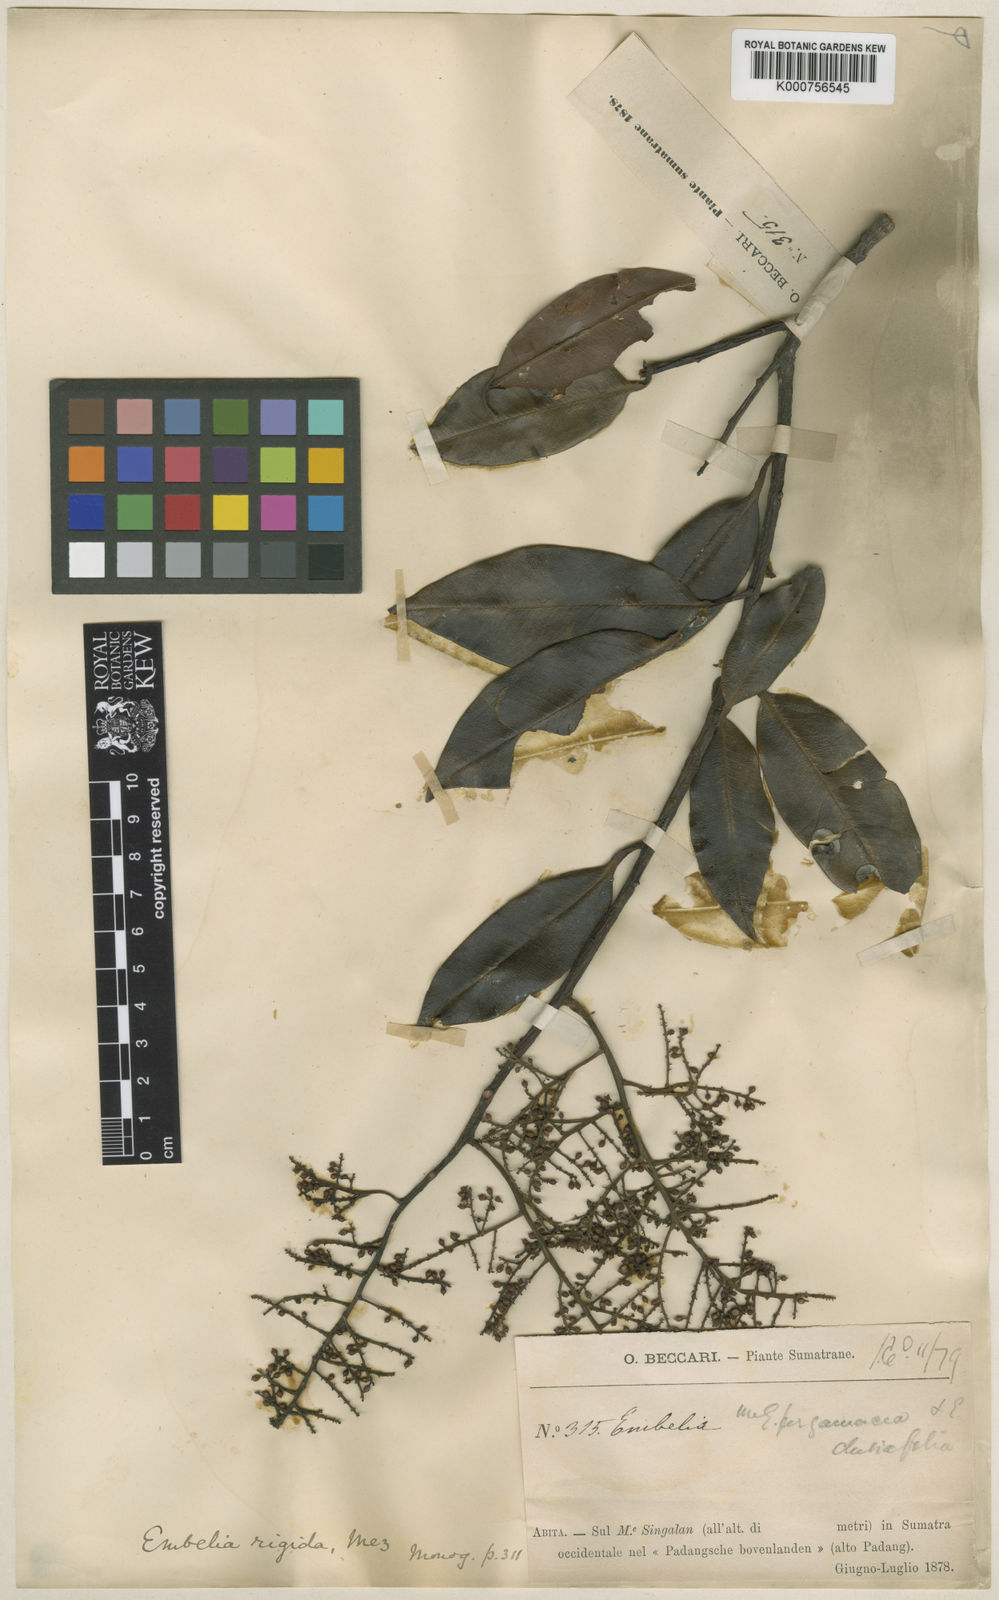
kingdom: Plantae
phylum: Tracheophyta
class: Magnoliopsida
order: Ericales
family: Primulaceae
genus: Embelia
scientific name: Embelia rigida
